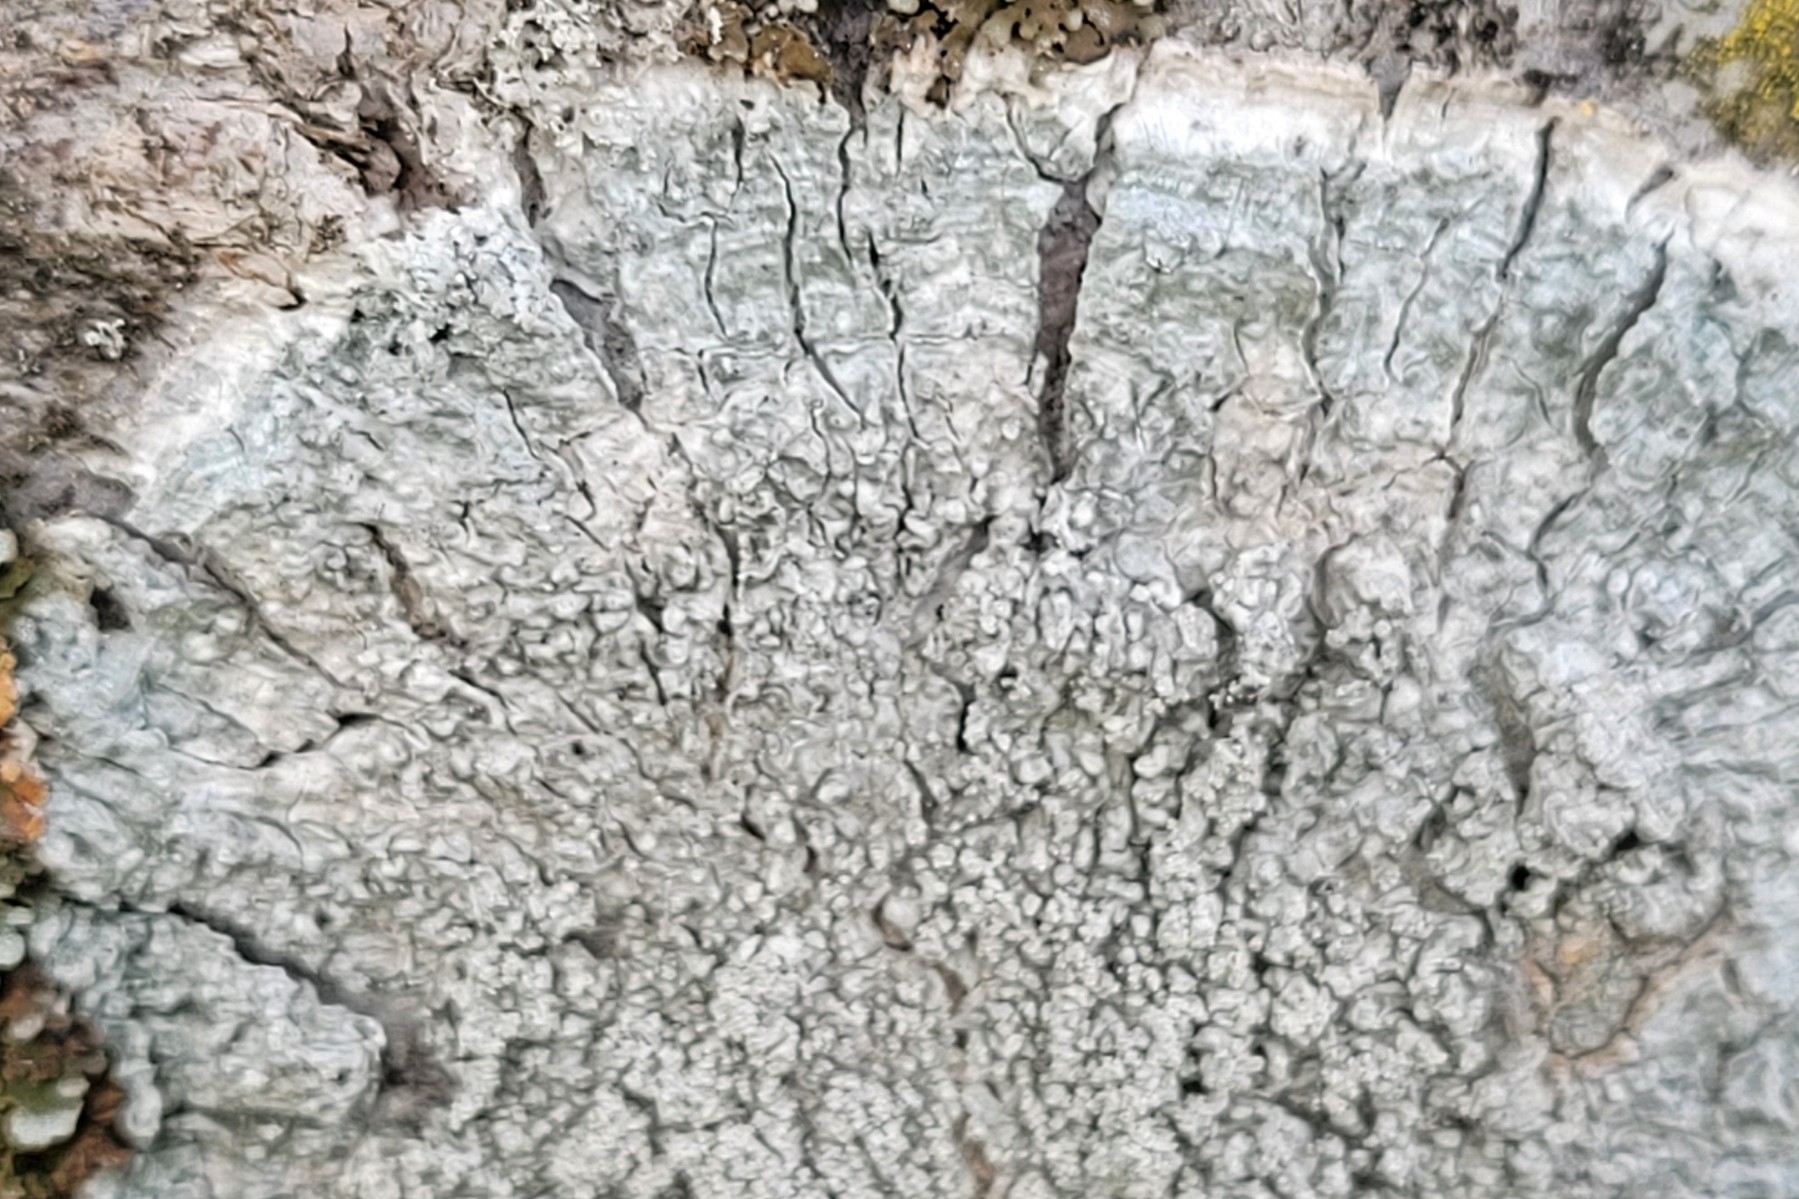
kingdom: Fungi
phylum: Ascomycota
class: Lecanoromycetes
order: Pertusariales
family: Pertusariaceae
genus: Lepra
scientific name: Lepra albescens
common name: hvidmelet prikvortelav
